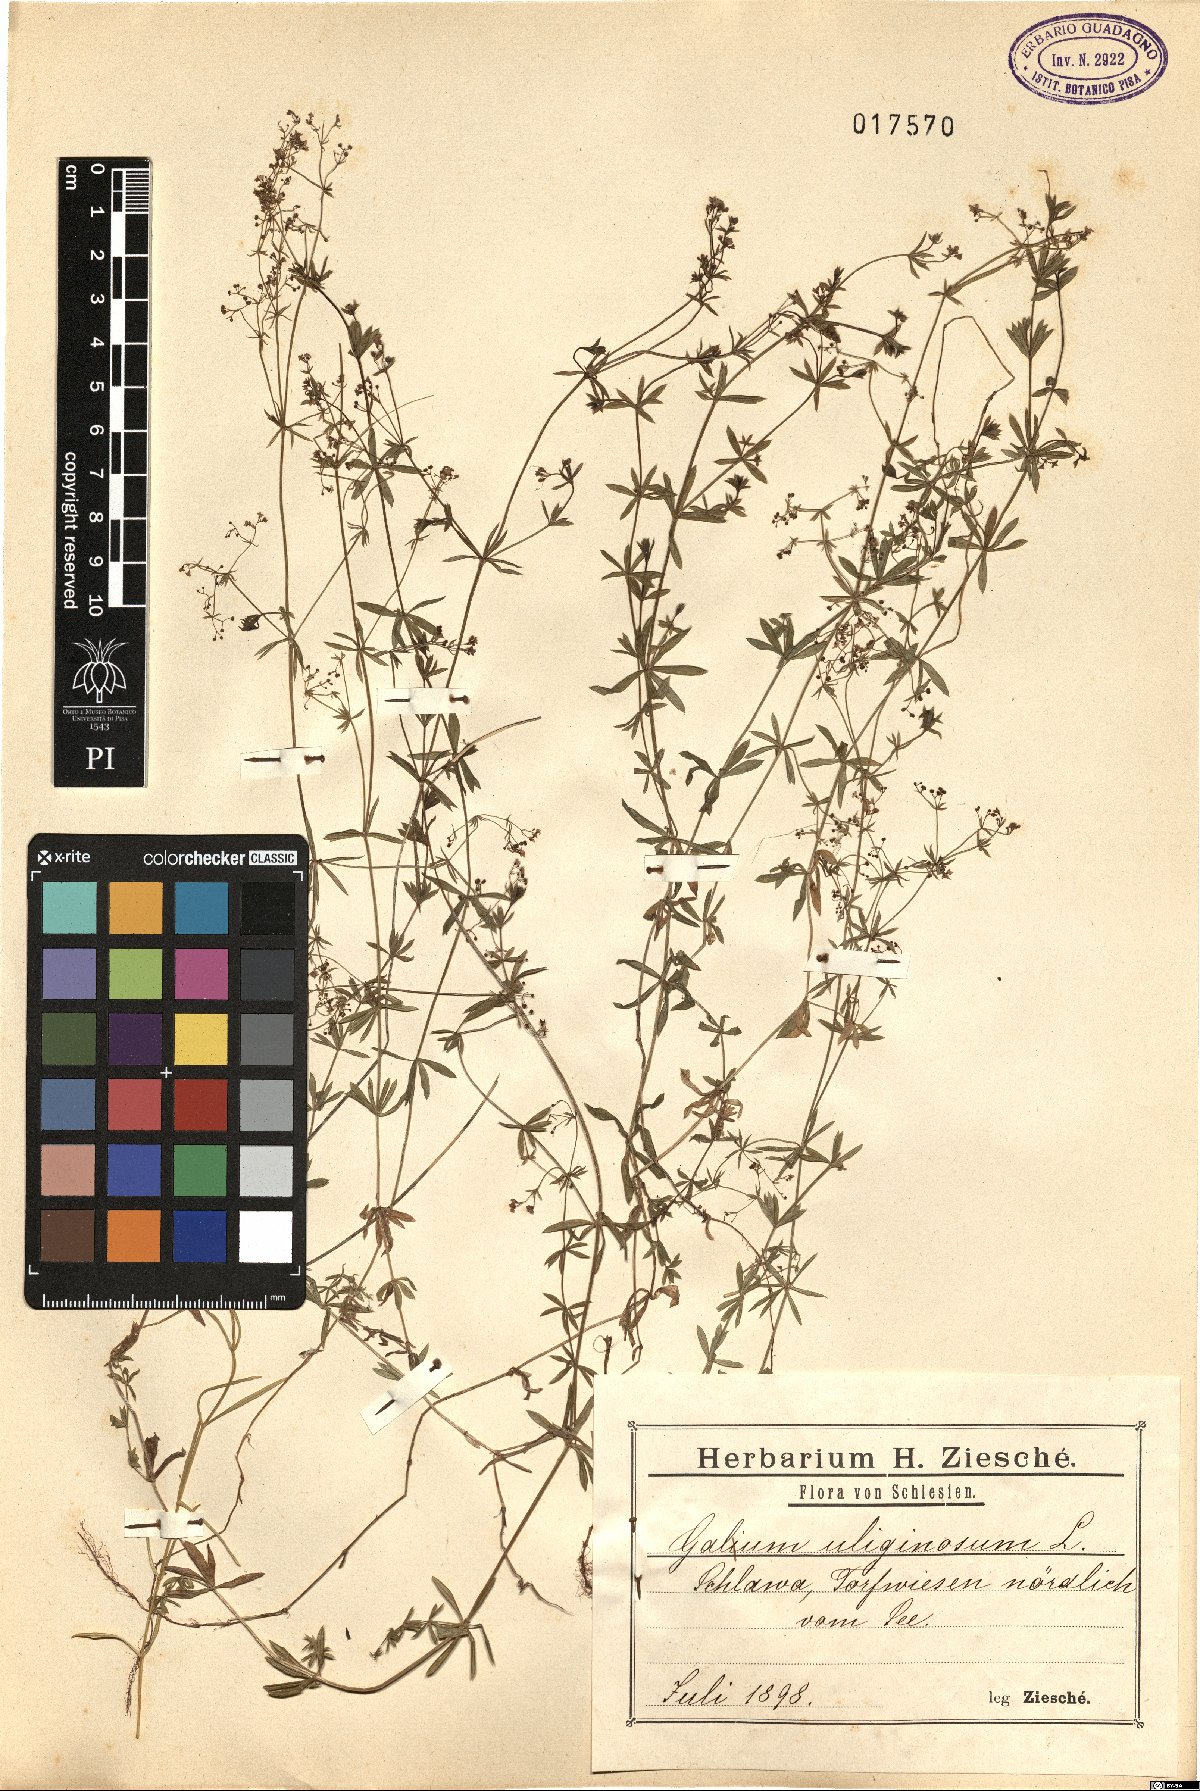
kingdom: Plantae
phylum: Tracheophyta
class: Magnoliopsida
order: Gentianales
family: Rubiaceae
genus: Galium
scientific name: Galium uliginosum
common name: Fen bedstraw
